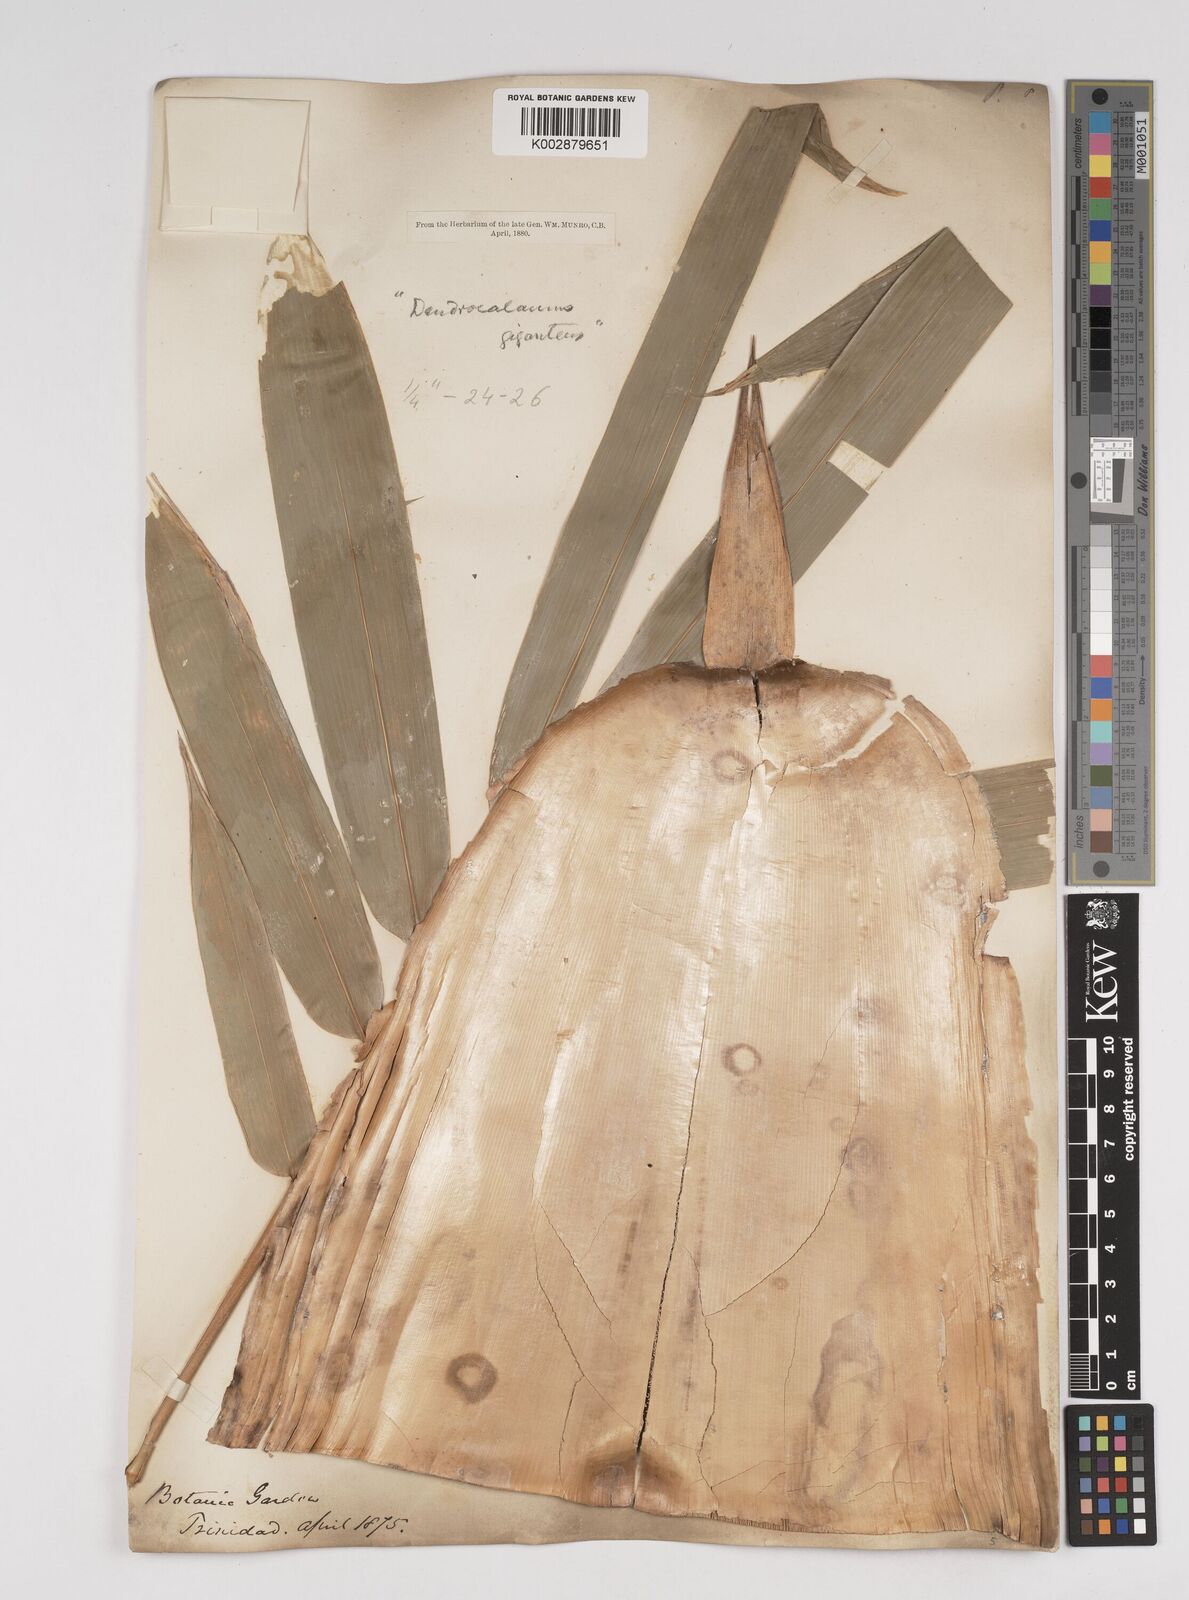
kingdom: Plantae
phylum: Tracheophyta
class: Liliopsida
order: Poales
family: Poaceae
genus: Dendrocalamus
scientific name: Dendrocalamus giganteus
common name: Giant bamboo
